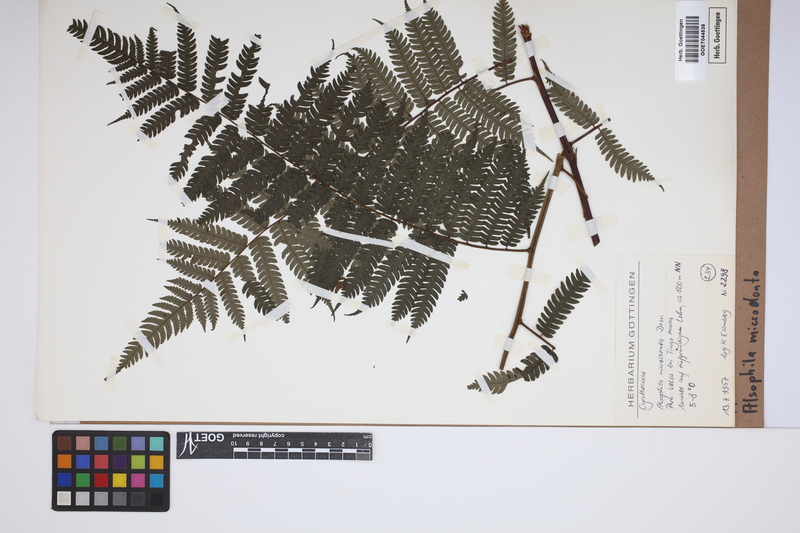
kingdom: Plantae
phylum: Tracheophyta
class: Polypodiopsida
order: Cyatheales
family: Cyatheaceae
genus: Cyathea
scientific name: Cyathea microdonta
